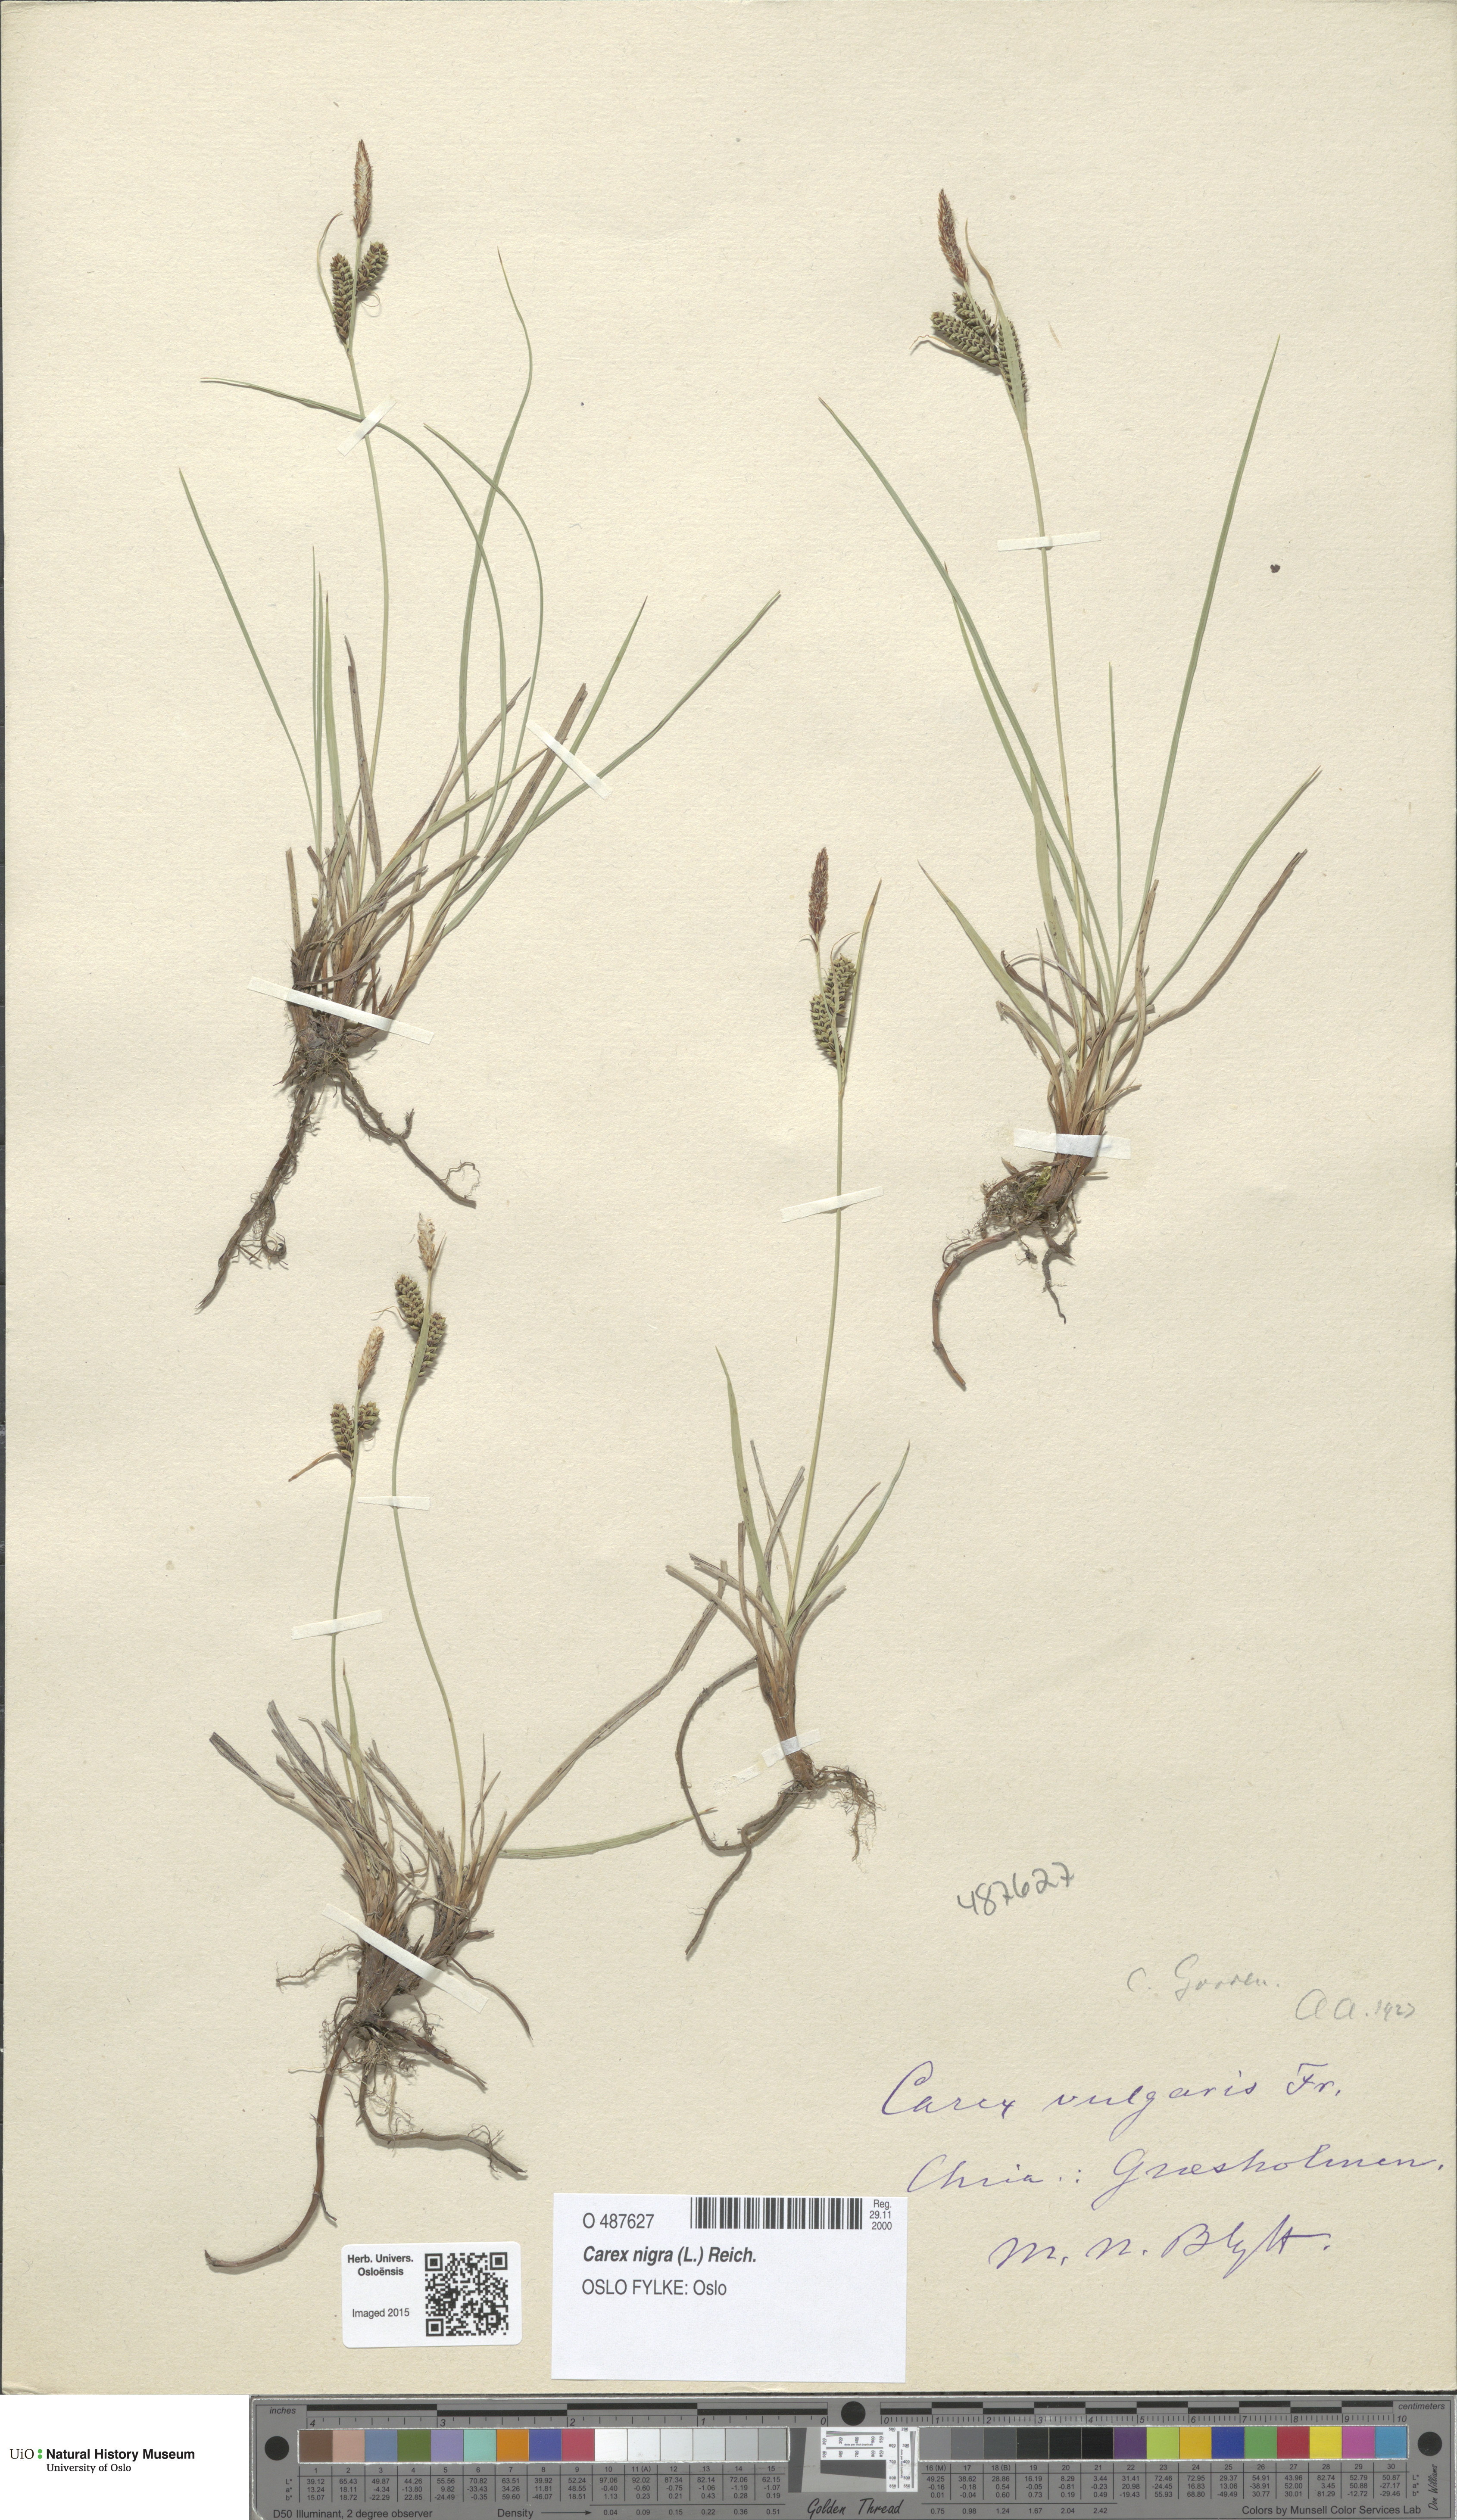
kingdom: Plantae
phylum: Tracheophyta
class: Liliopsida
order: Poales
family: Cyperaceae
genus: Carex
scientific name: Carex nigra
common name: Common sedge
